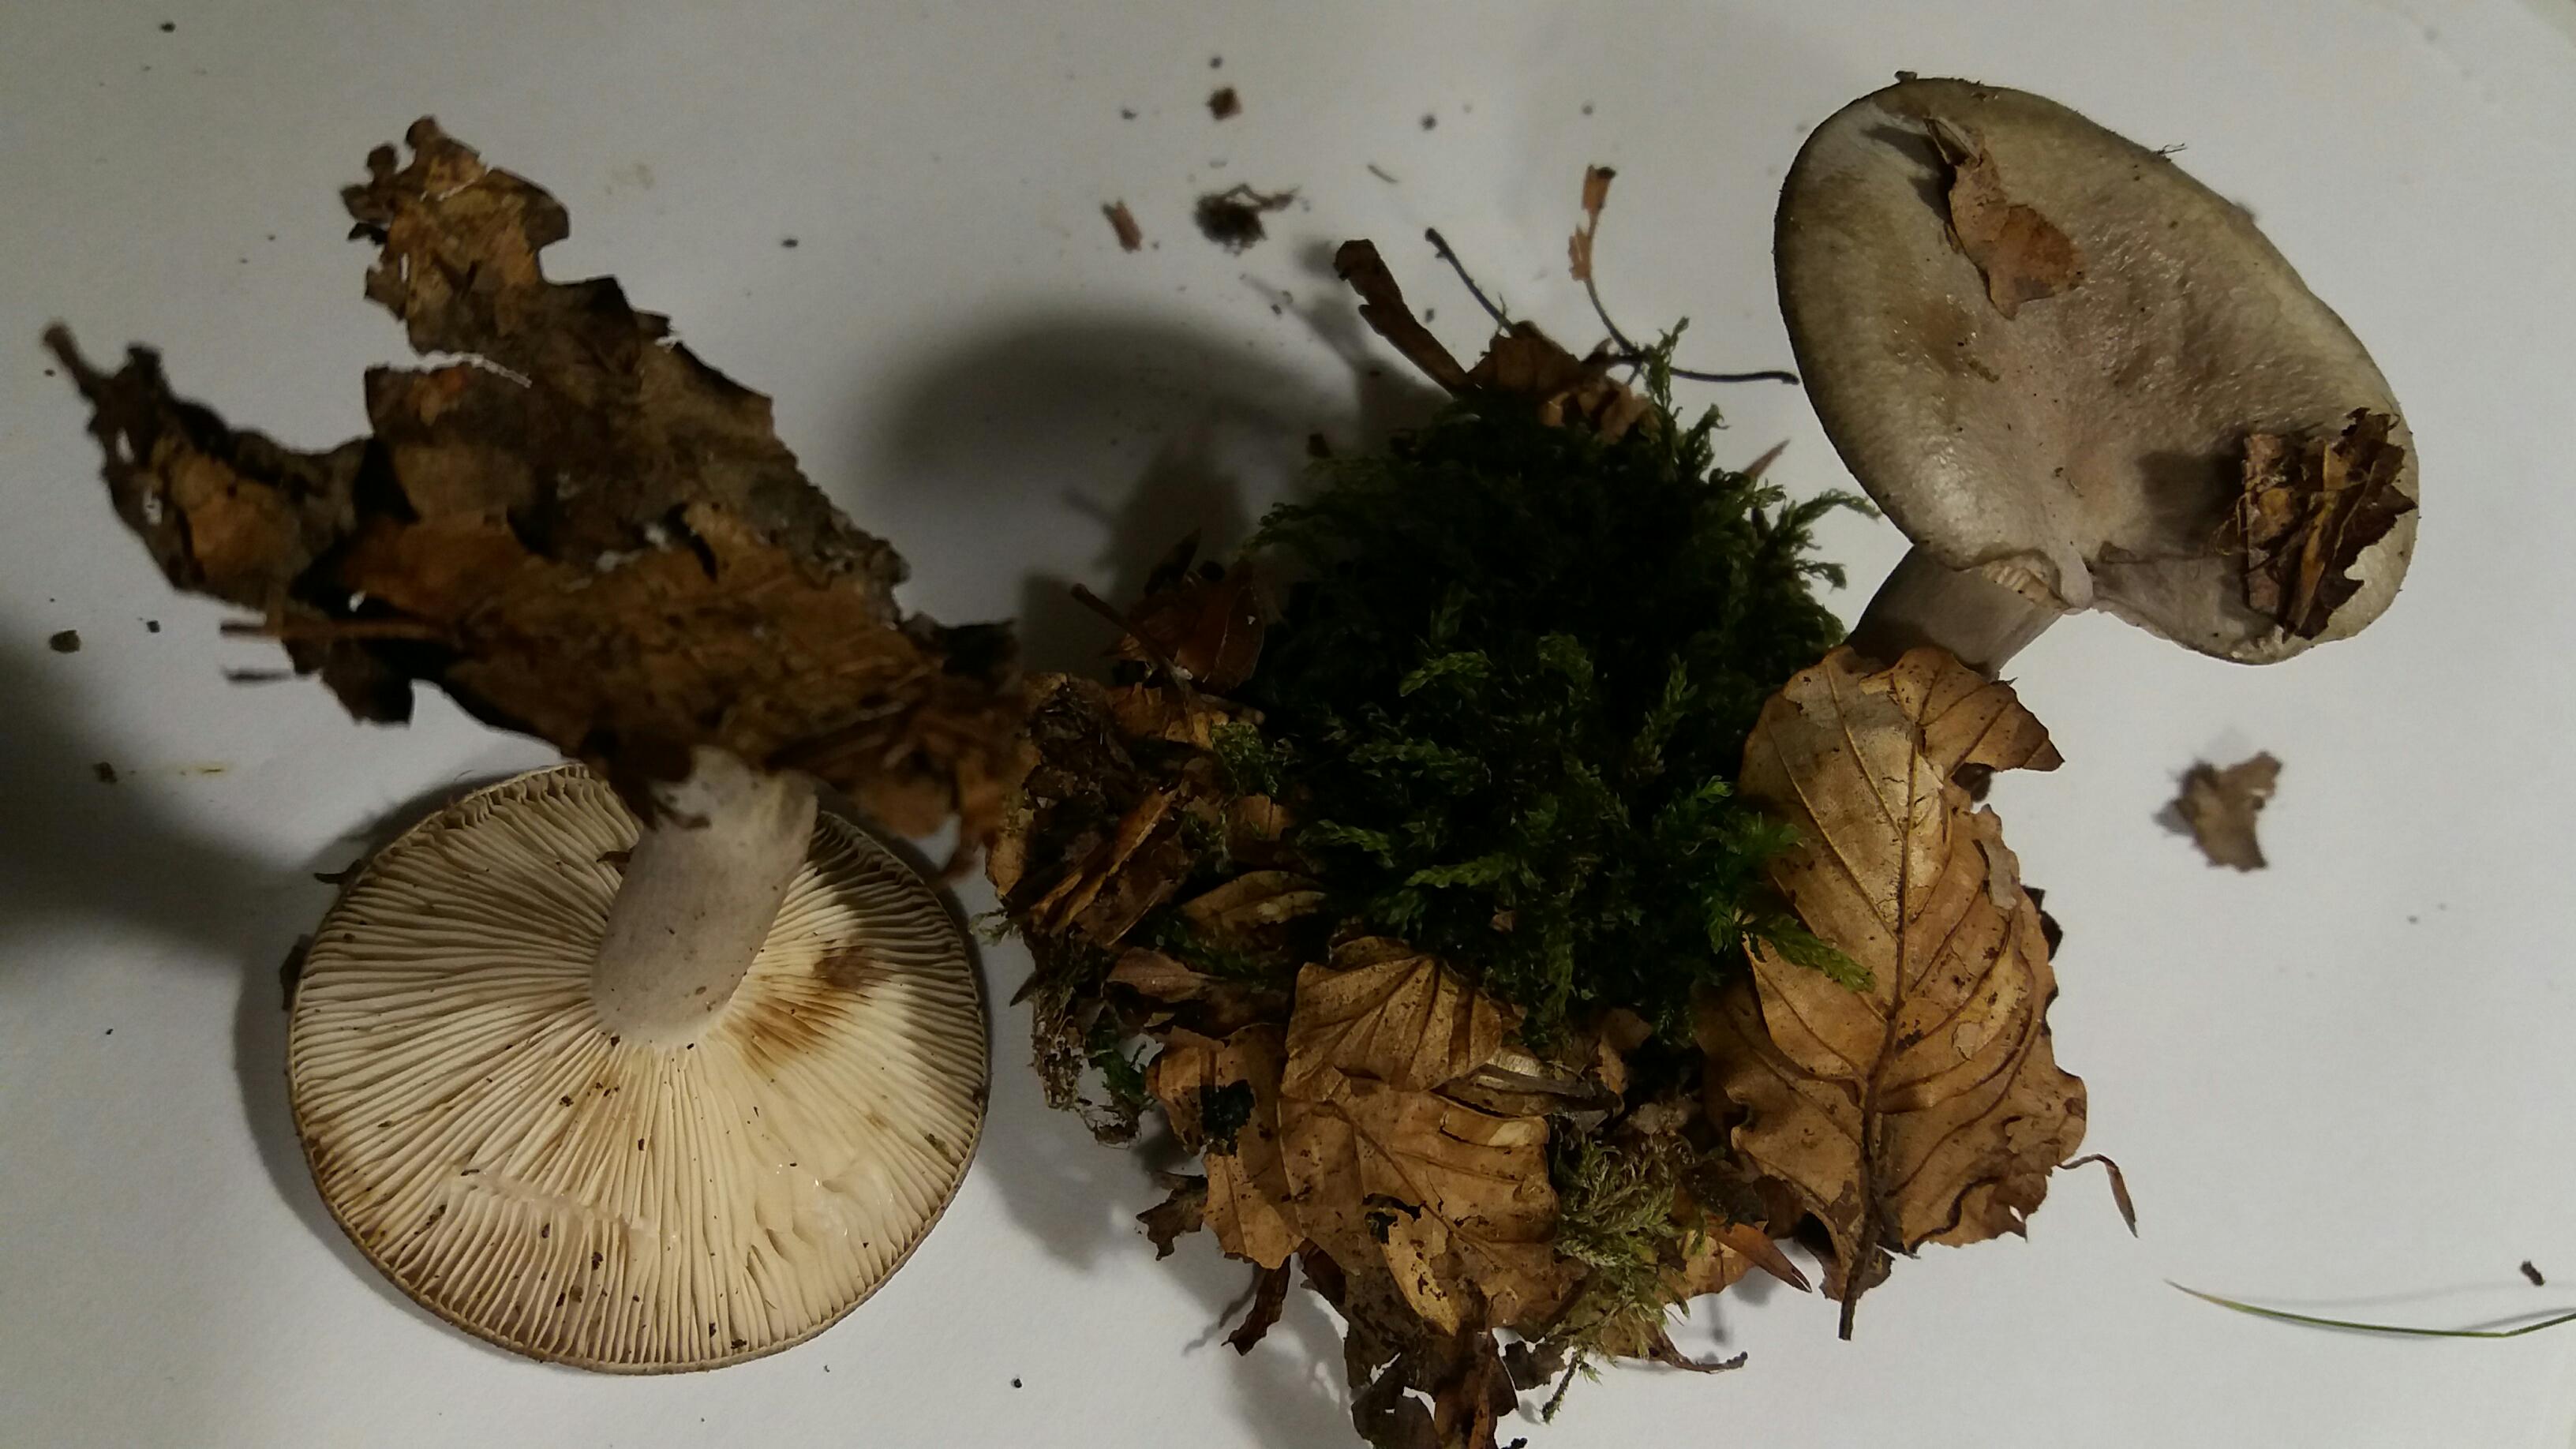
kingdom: Fungi
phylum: Basidiomycota
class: Agaricomycetes
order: Russulales
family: Russulaceae
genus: Lactarius
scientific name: Lactarius blennius
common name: dråbeplettet mælkehat
